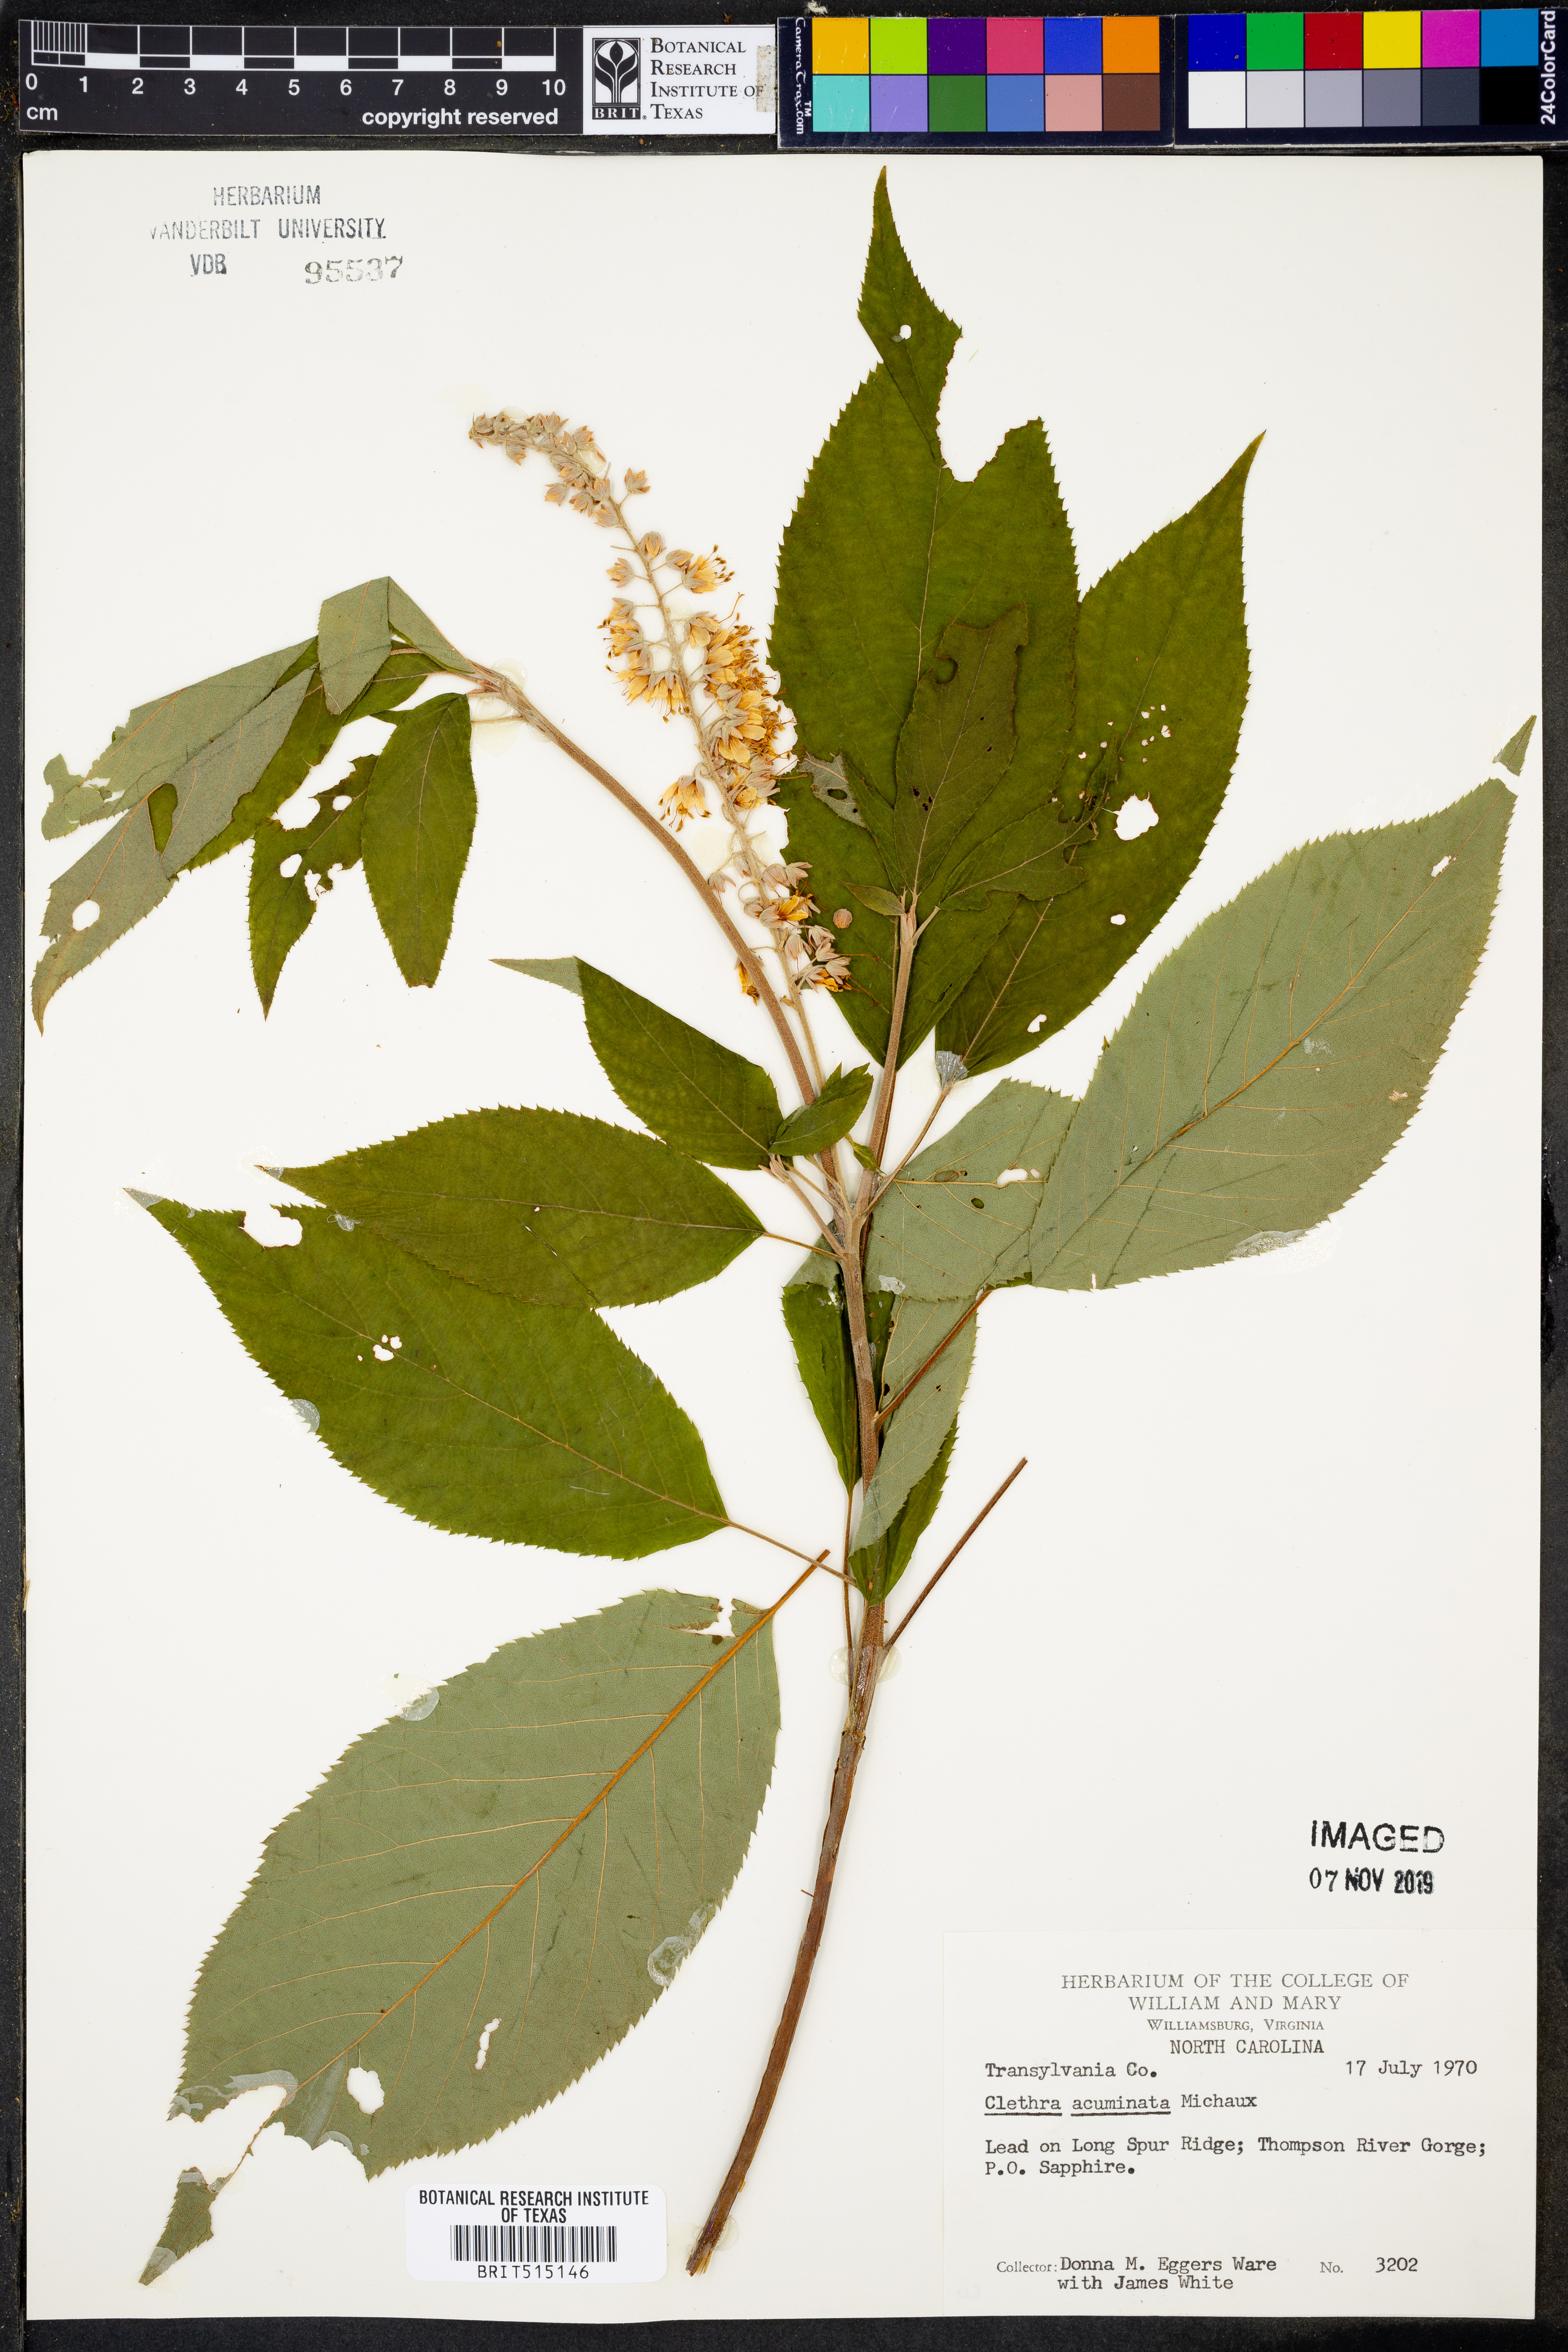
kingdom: Plantae
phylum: Tracheophyta
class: Magnoliopsida
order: Ericales
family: Clethraceae
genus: Clethra
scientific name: Clethra acuminata
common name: Mountain sweet pepperbush
